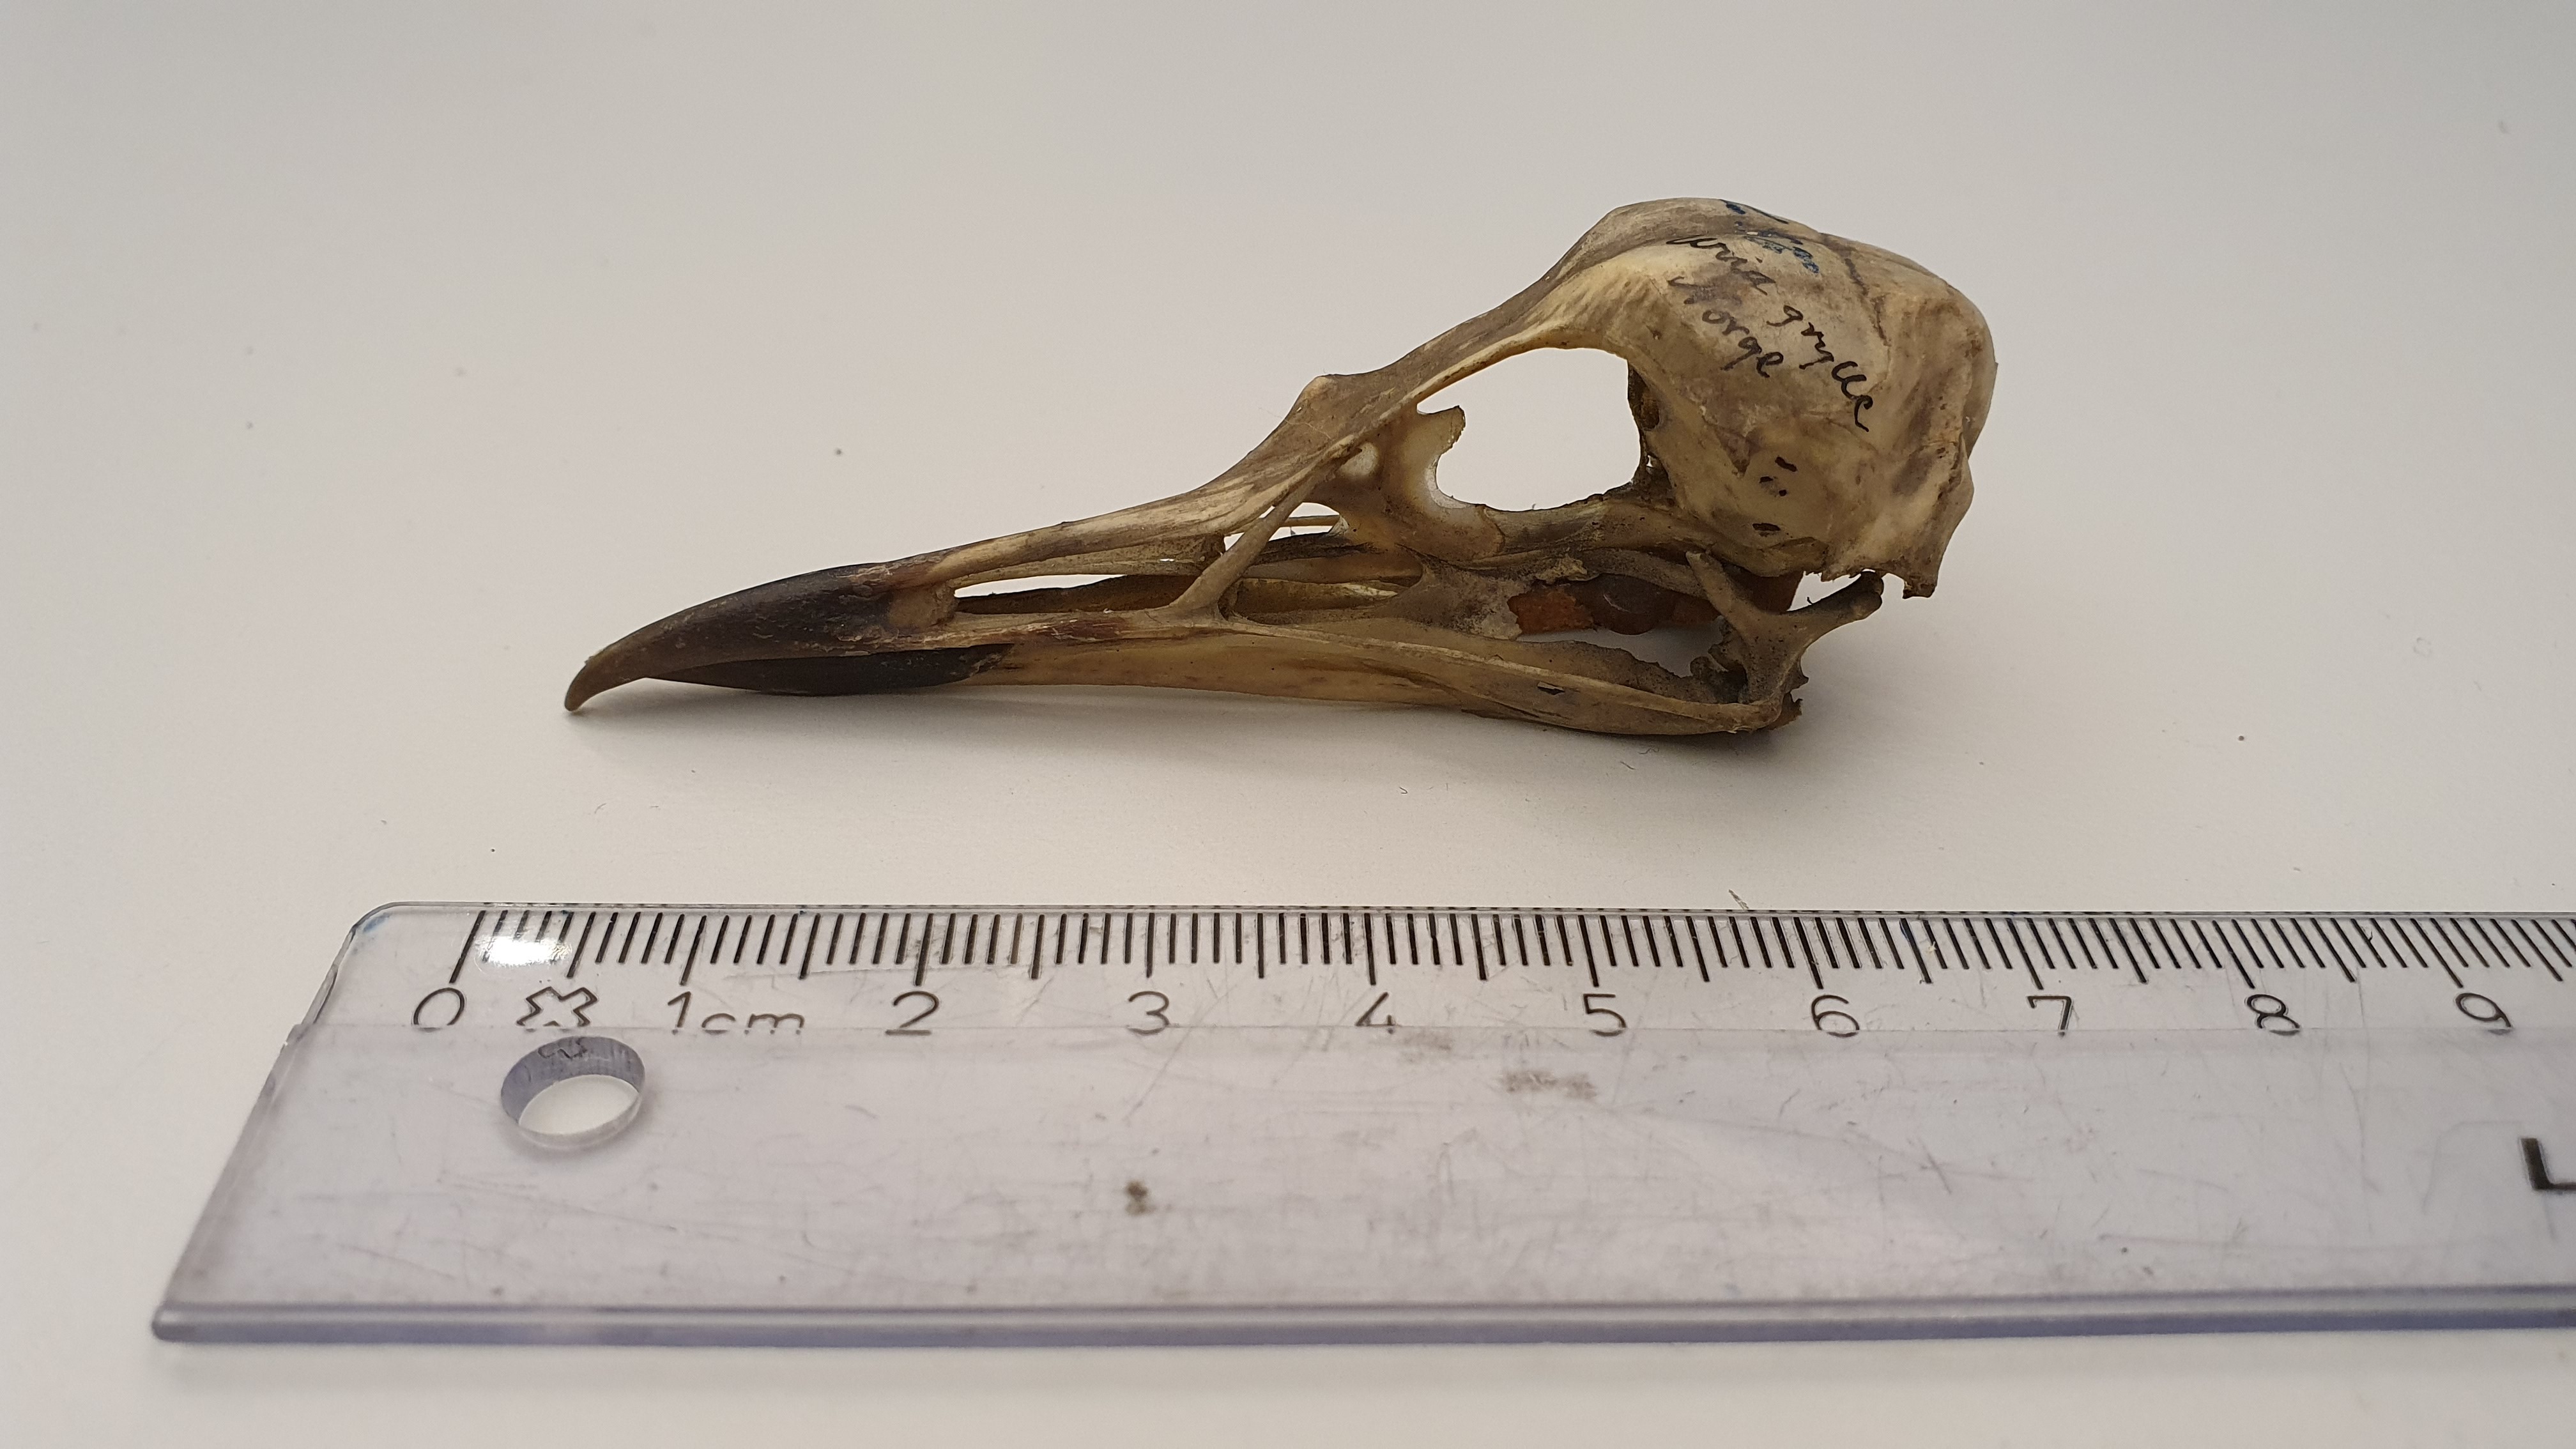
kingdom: Animalia
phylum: Chordata
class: Aves
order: Charadriiformes
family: Alcidae
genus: Cepphus
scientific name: Cepphus grylle
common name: Black guillemot
